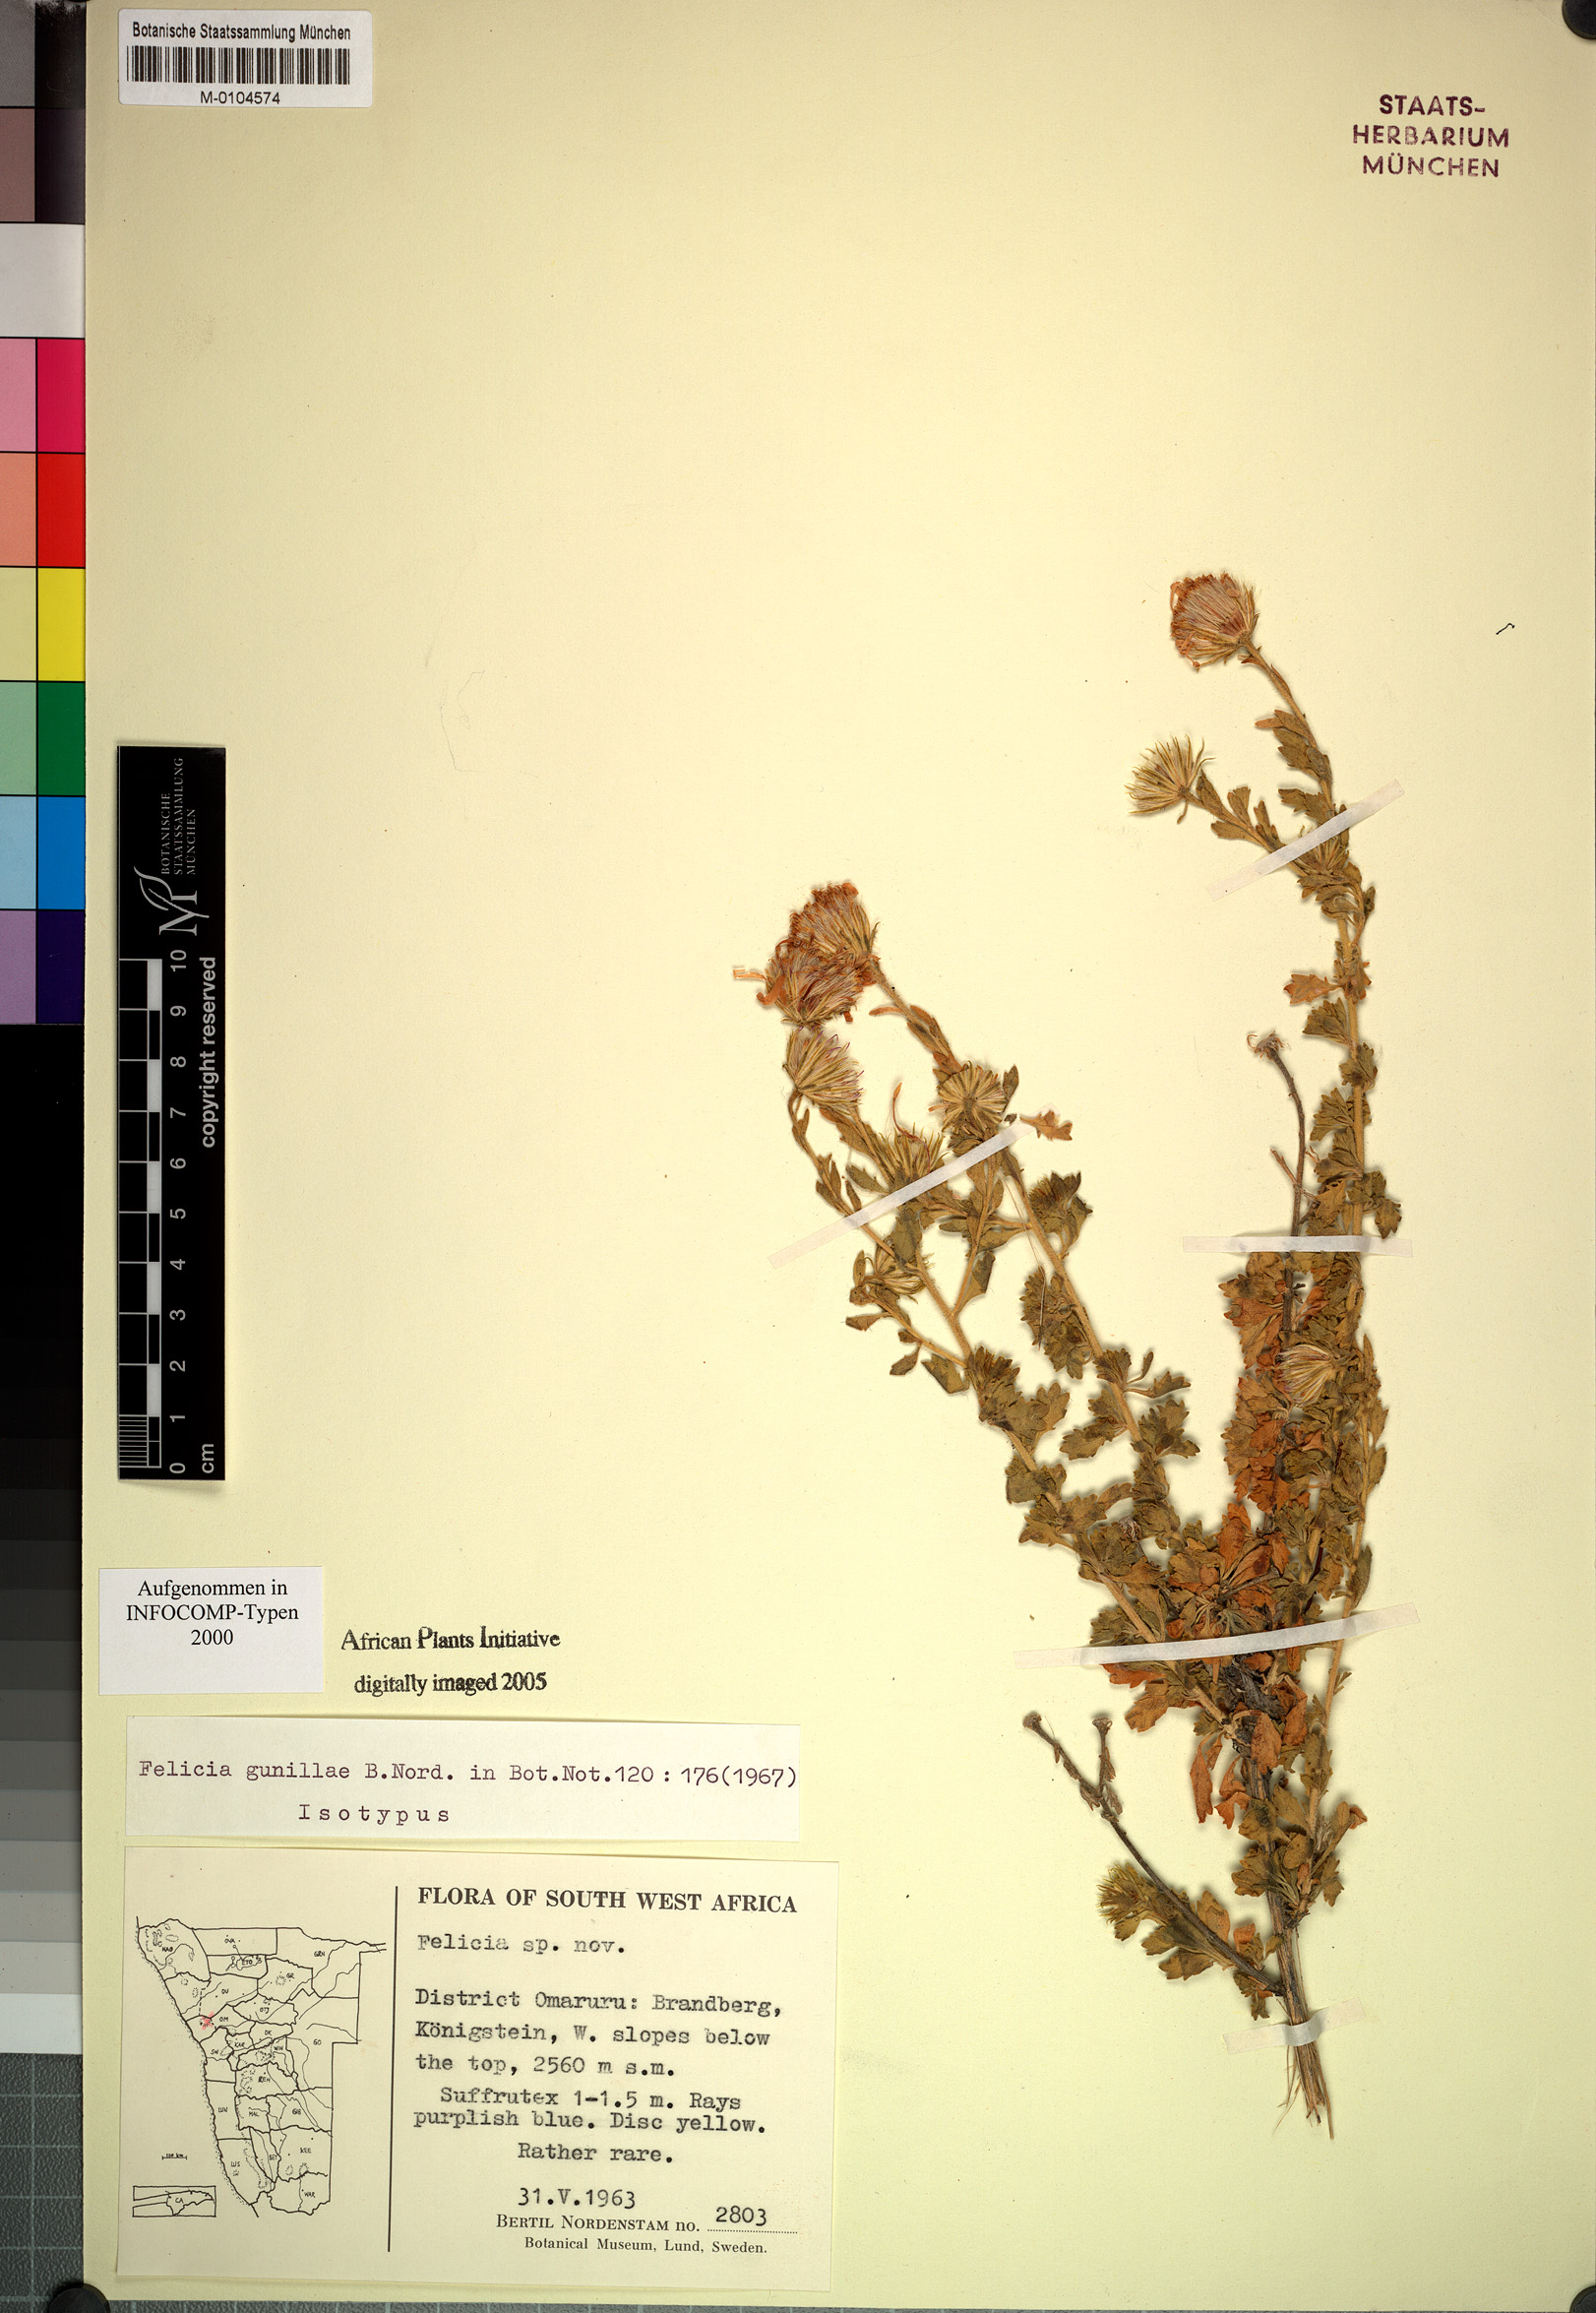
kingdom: Plantae
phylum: Tracheophyta
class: Magnoliopsida
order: Asterales
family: Asteraceae
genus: Felicia
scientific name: Felicia gunillae
